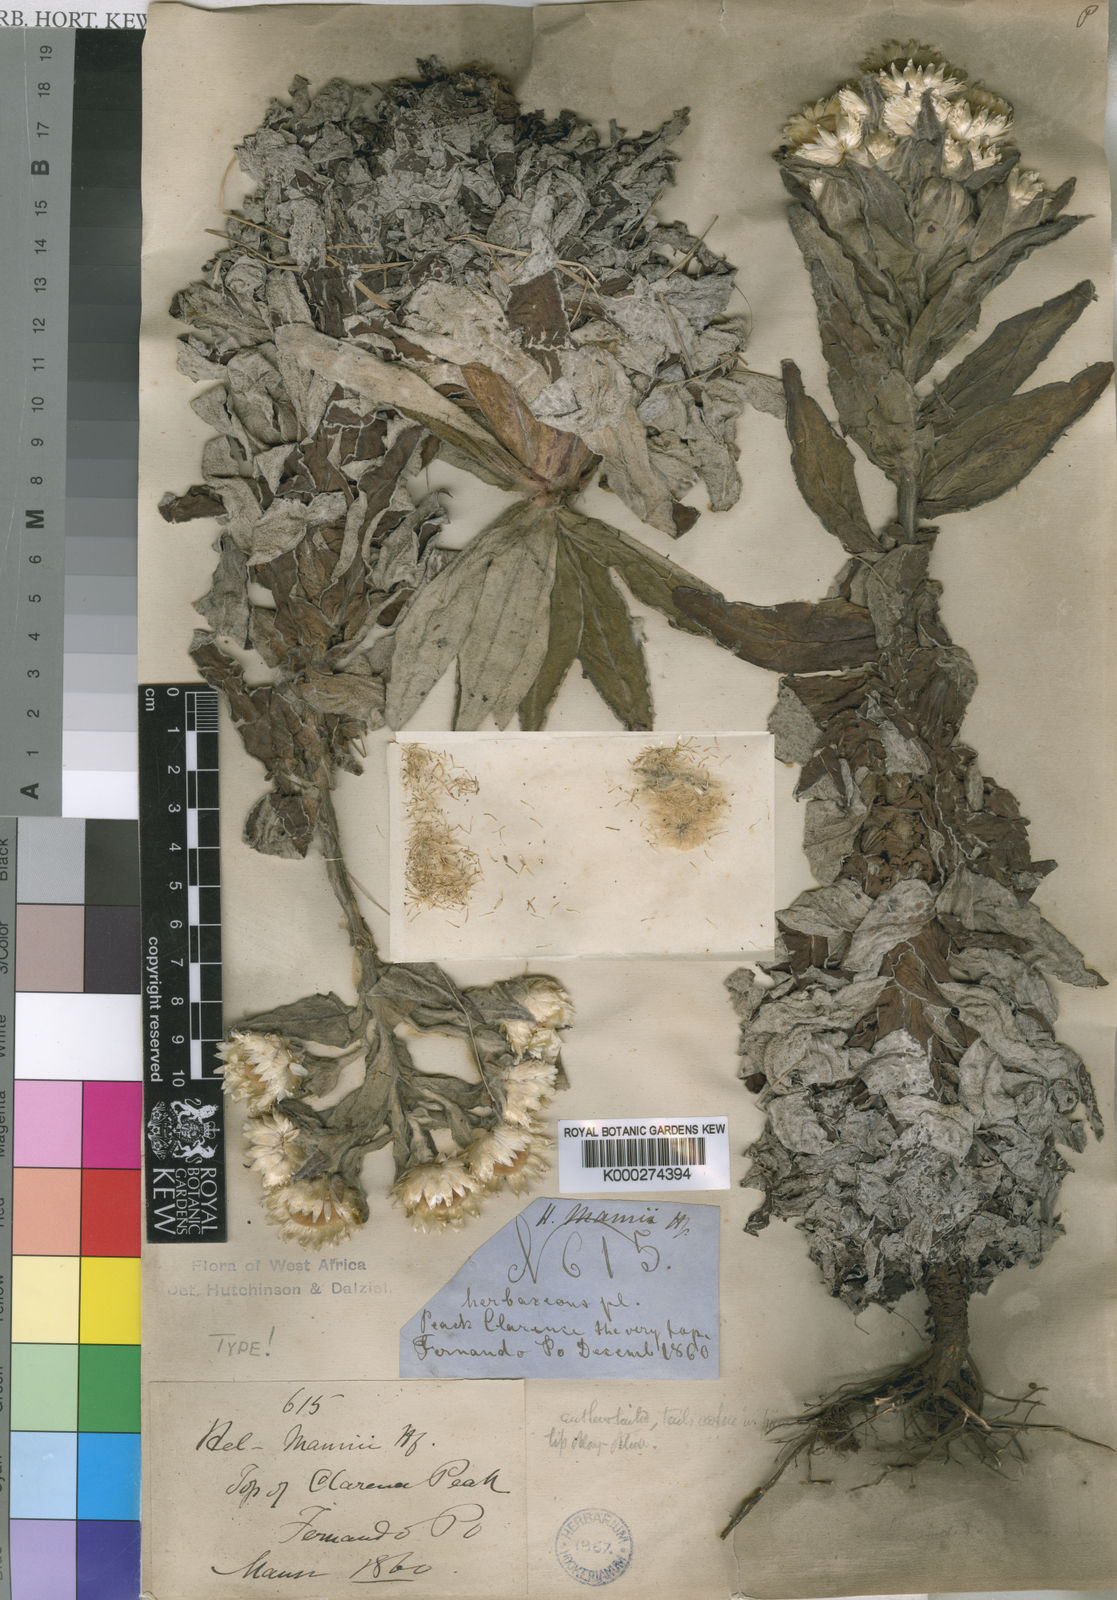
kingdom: Plantae
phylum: Tracheophyta
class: Magnoliopsida
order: Asterales
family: Asteraceae
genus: Helichrysum
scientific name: Helichrysum mannii
